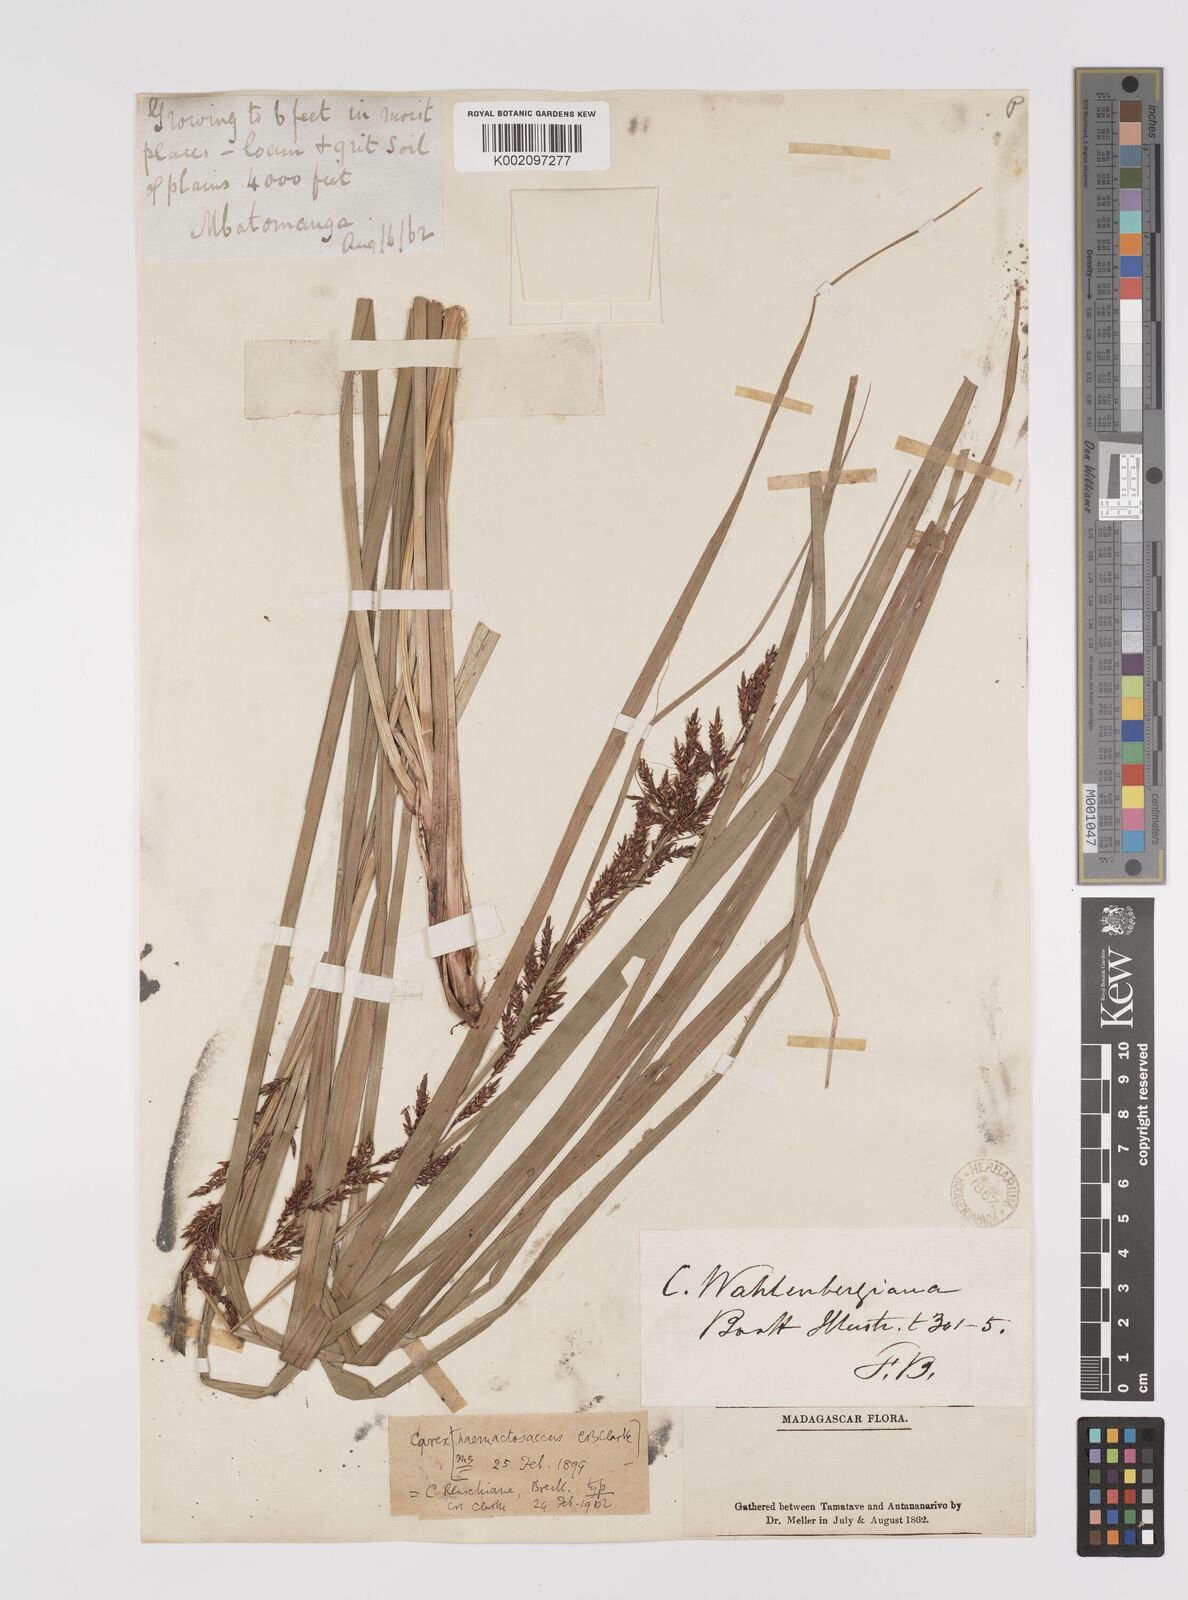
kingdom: Plantae
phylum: Tracheophyta
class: Liliopsida
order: Poales
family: Cyperaceae
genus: Carex
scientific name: Carex renschiana
